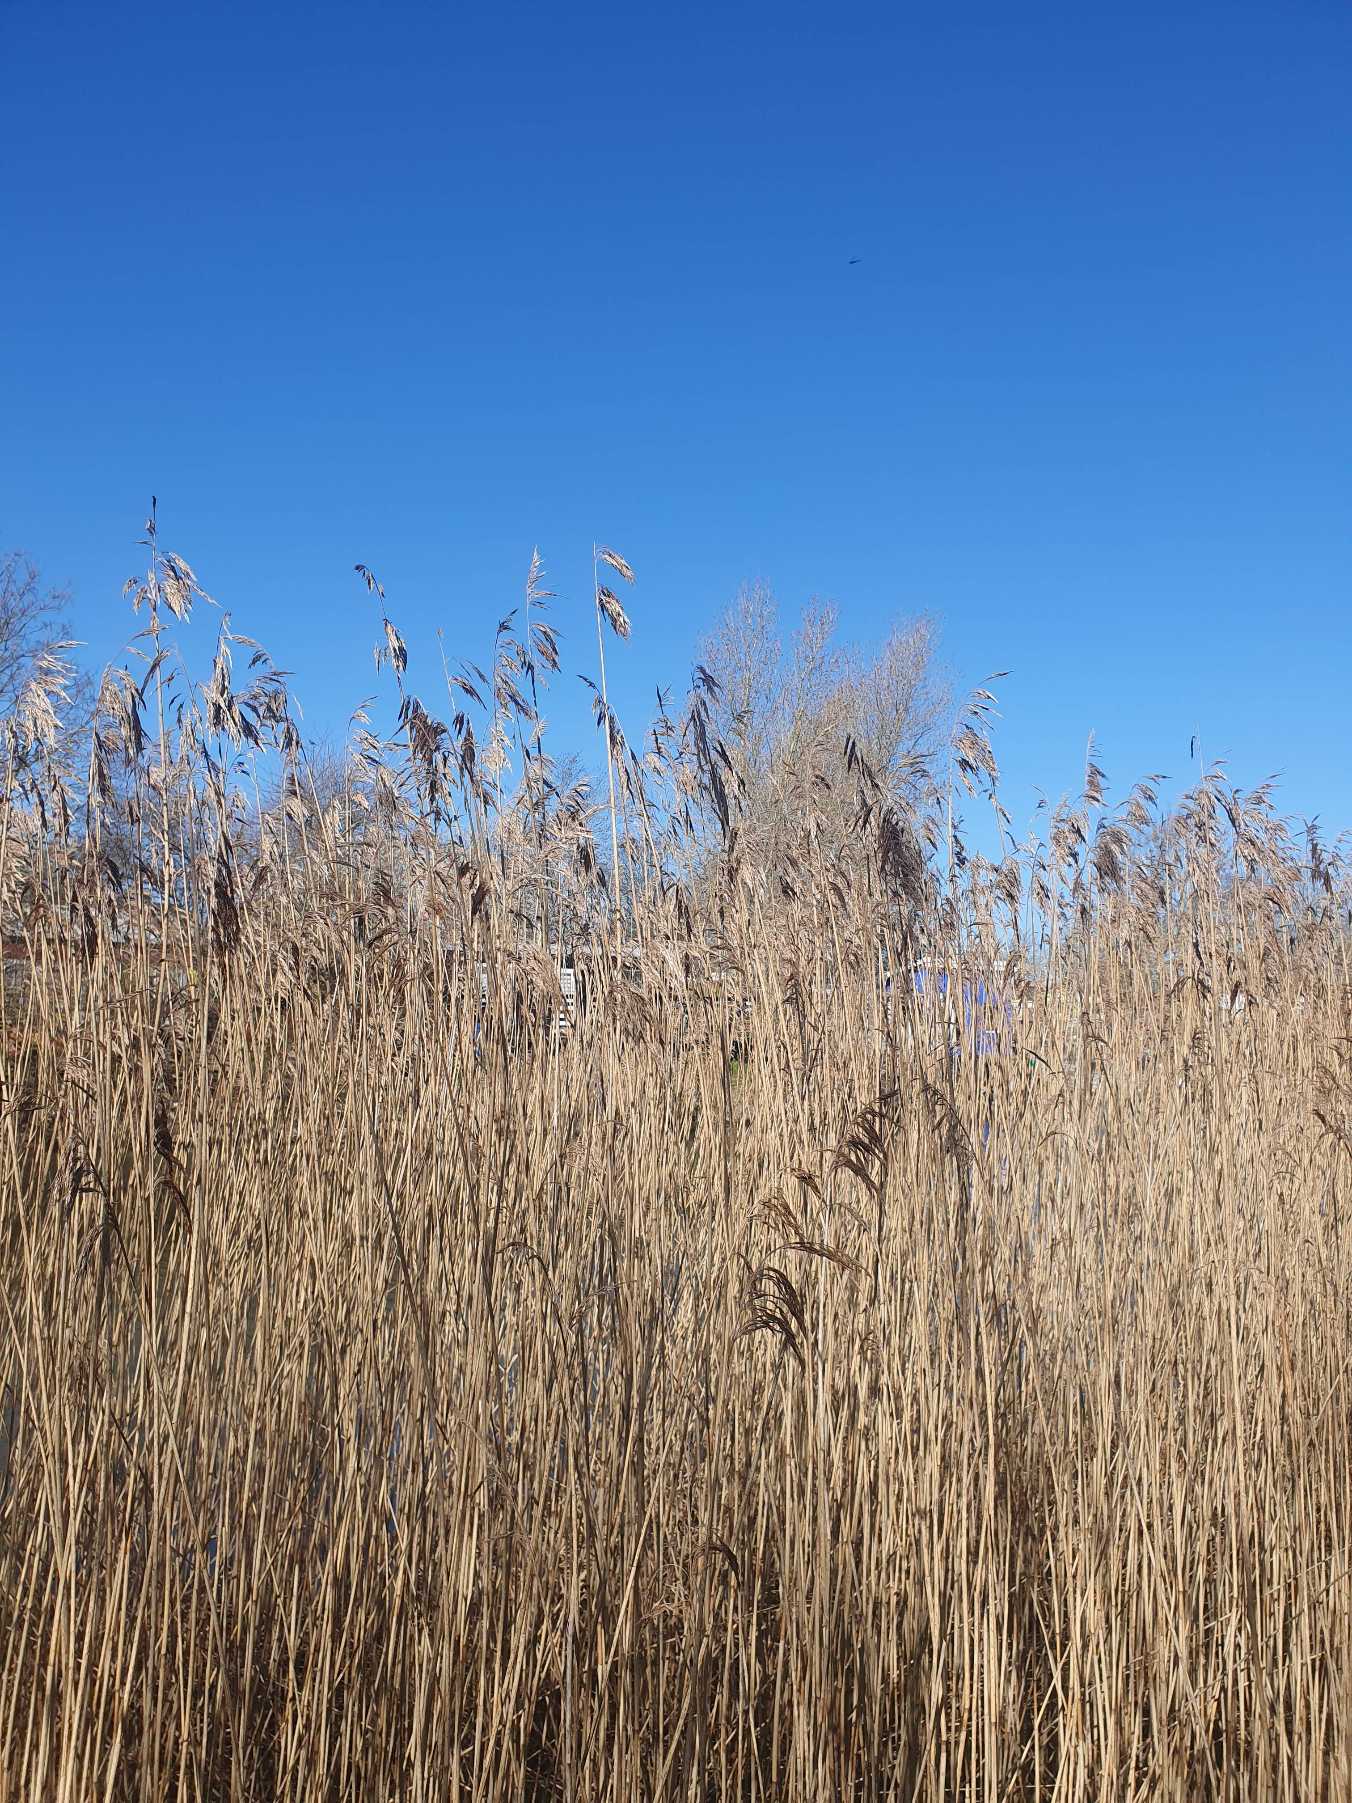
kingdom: Plantae
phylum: Tracheophyta
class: Liliopsida
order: Poales
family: Poaceae
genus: Phragmites
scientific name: Phragmites australis
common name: Tagrør
